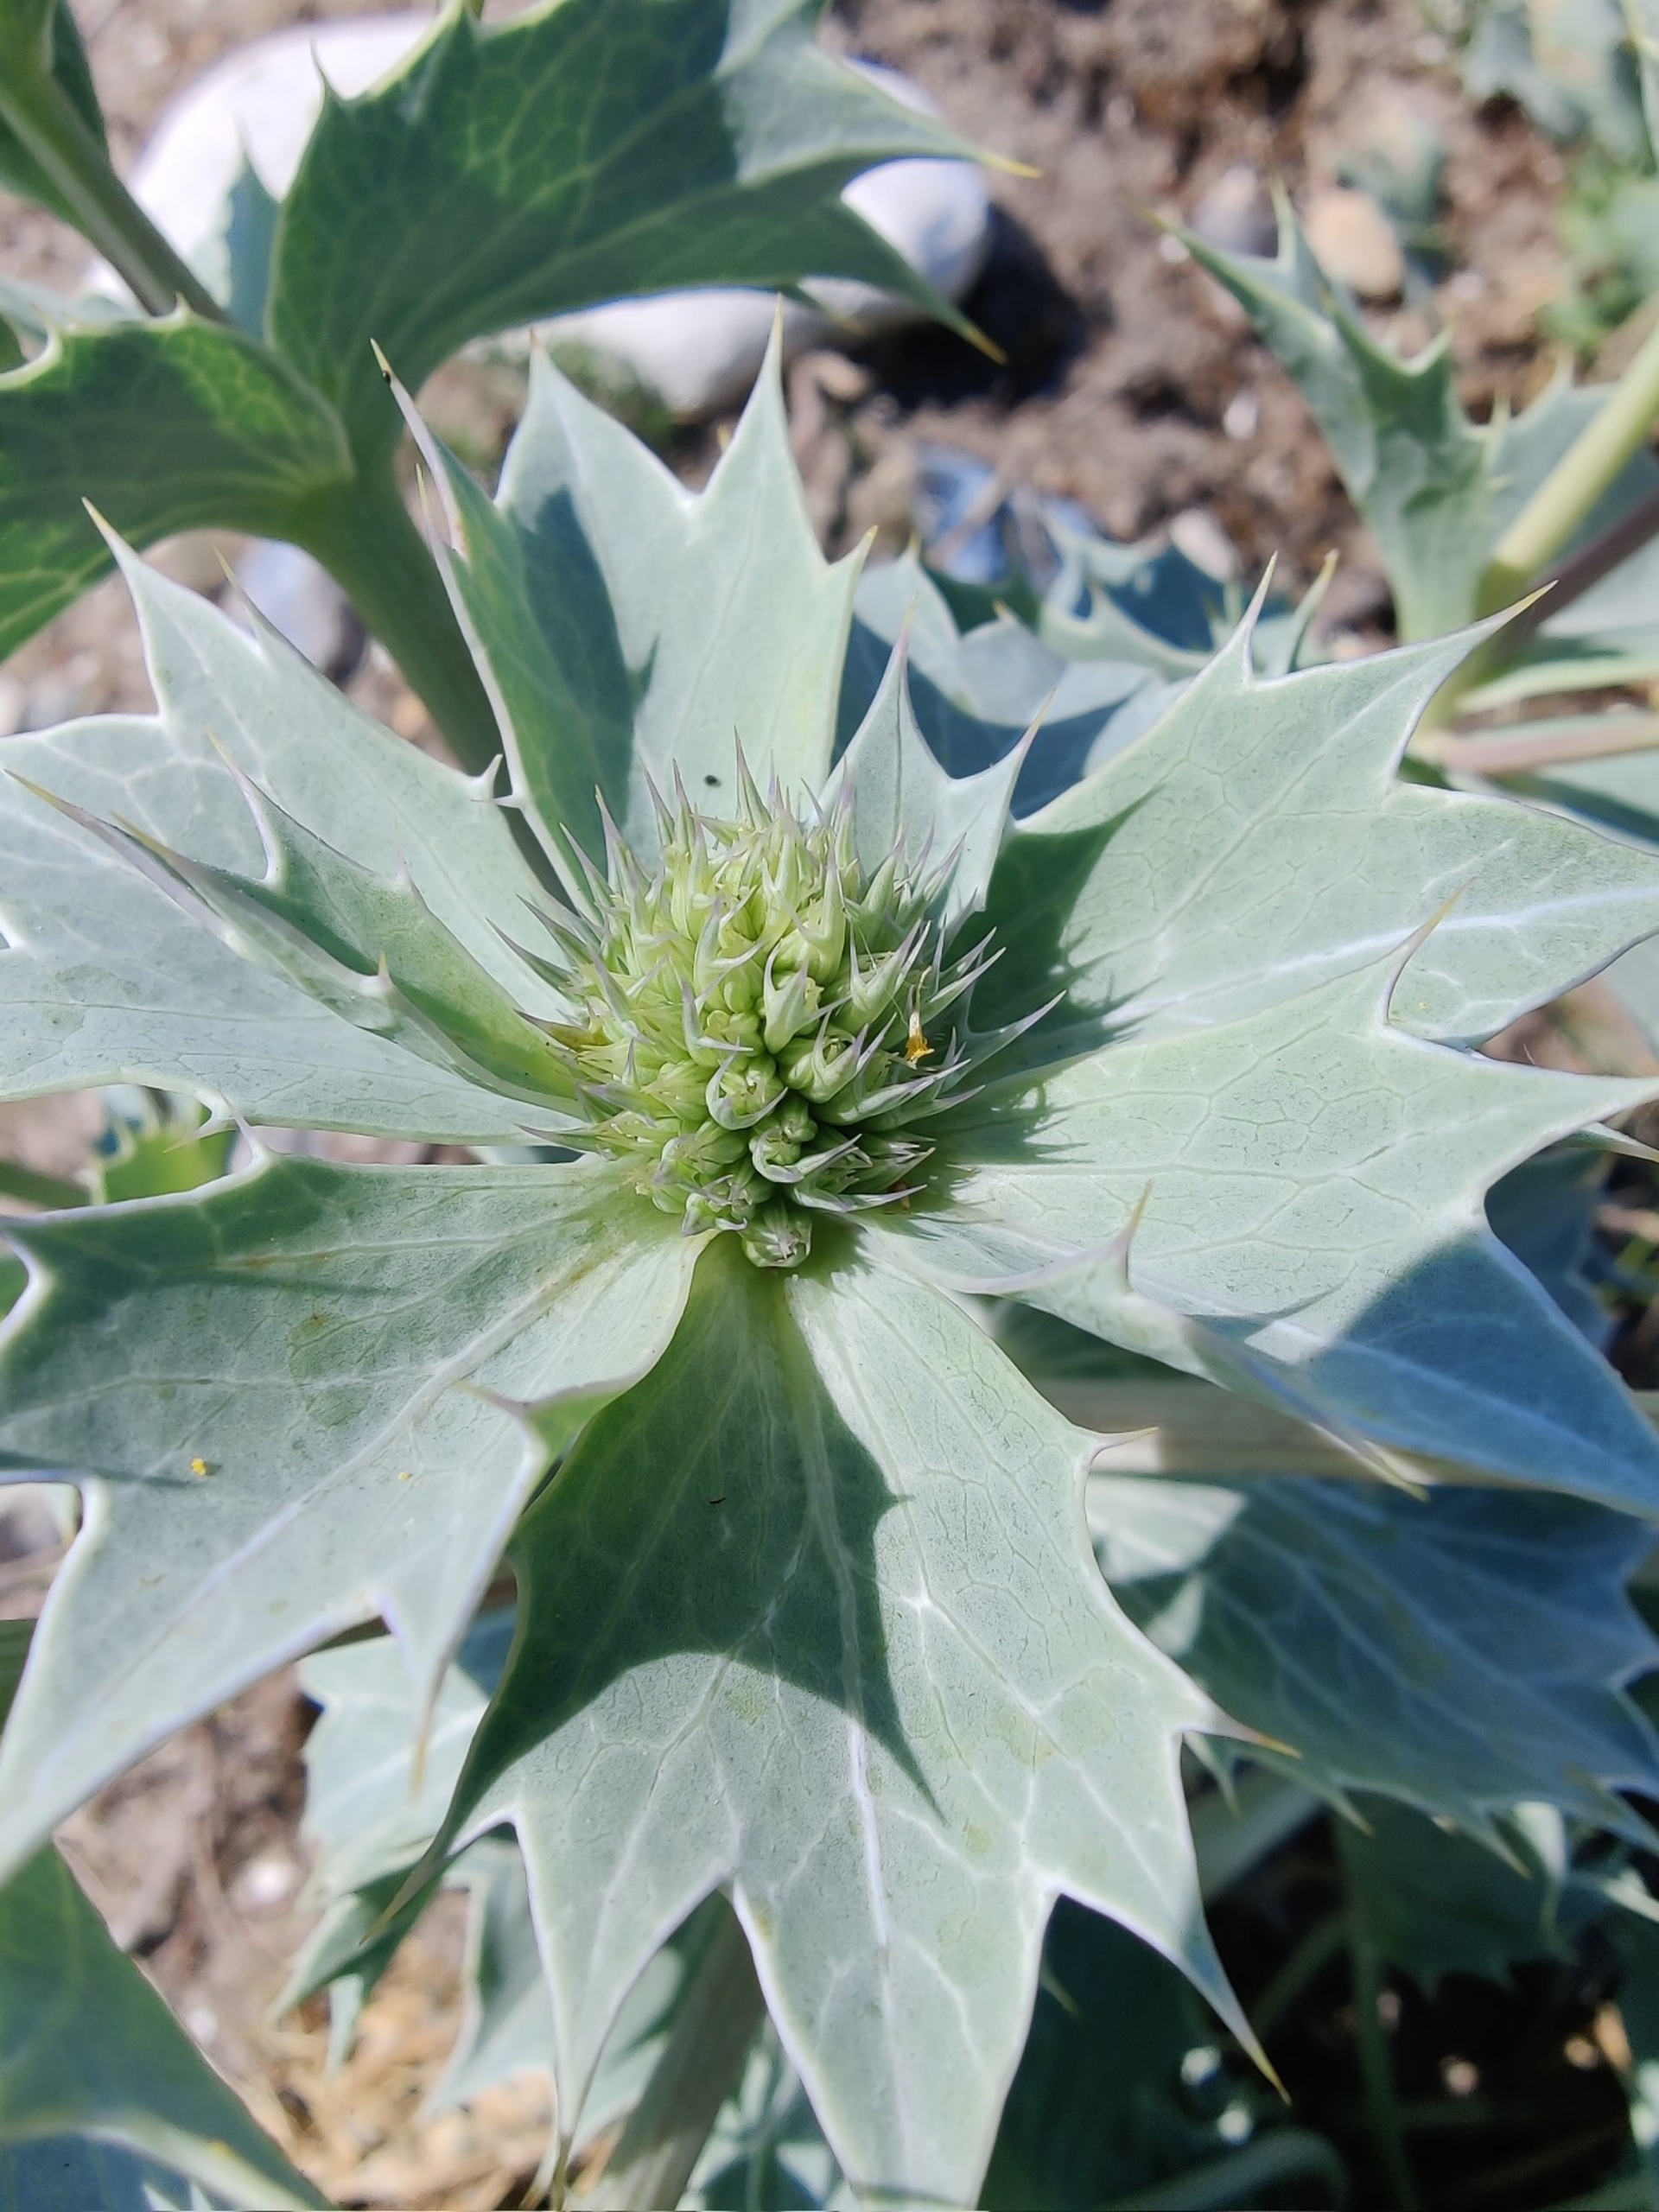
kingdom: Plantae
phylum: Tracheophyta
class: Magnoliopsida
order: Apiales
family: Apiaceae
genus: Eryngium
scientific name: Eryngium maritimum
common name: Strand-mandstro
